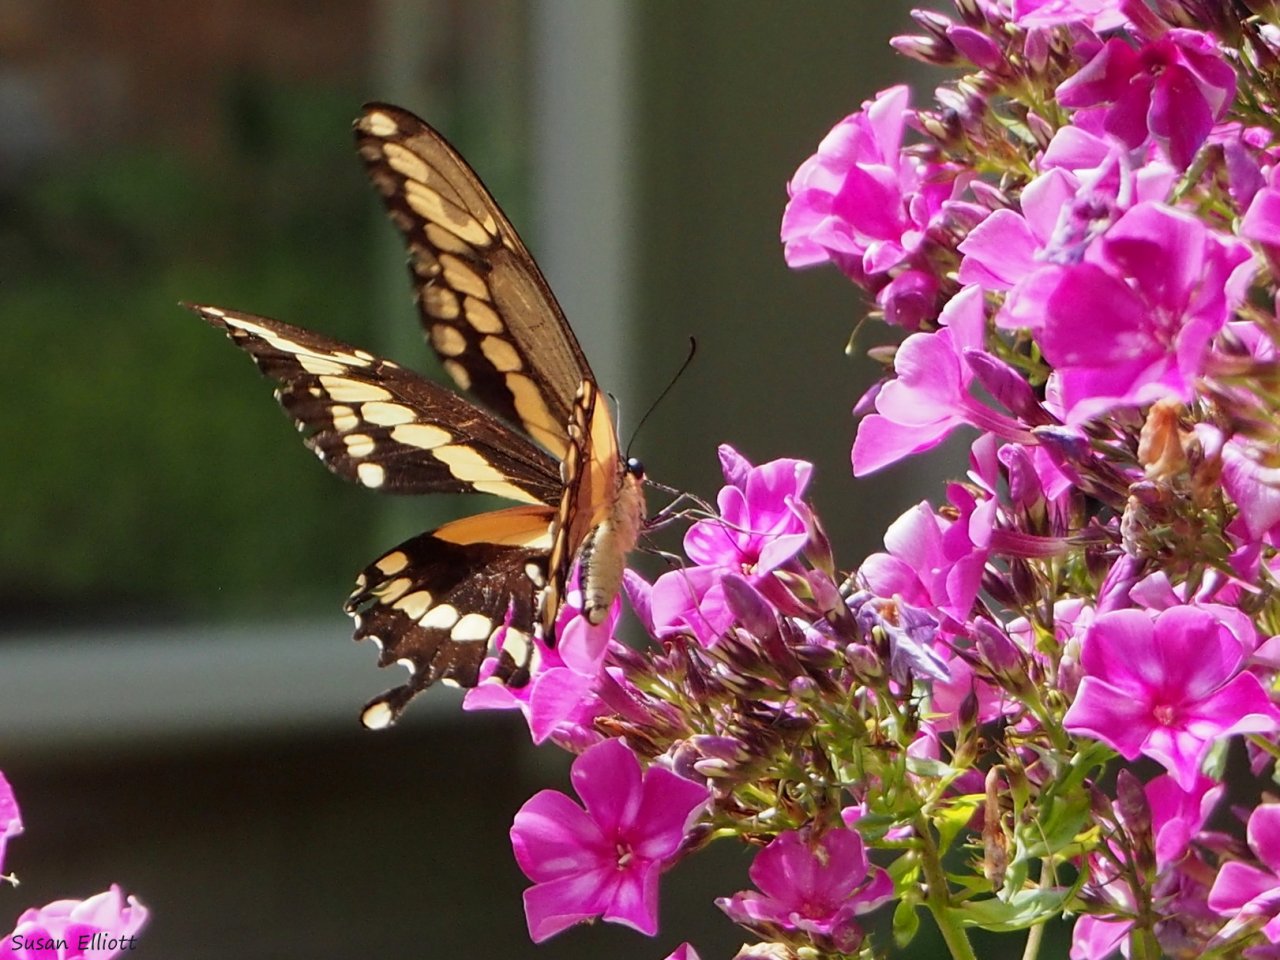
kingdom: Animalia
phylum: Arthropoda
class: Insecta
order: Lepidoptera
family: Papilionidae
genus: Papilio
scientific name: Papilio cresphontes
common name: Eastern Giant Swallowtail
